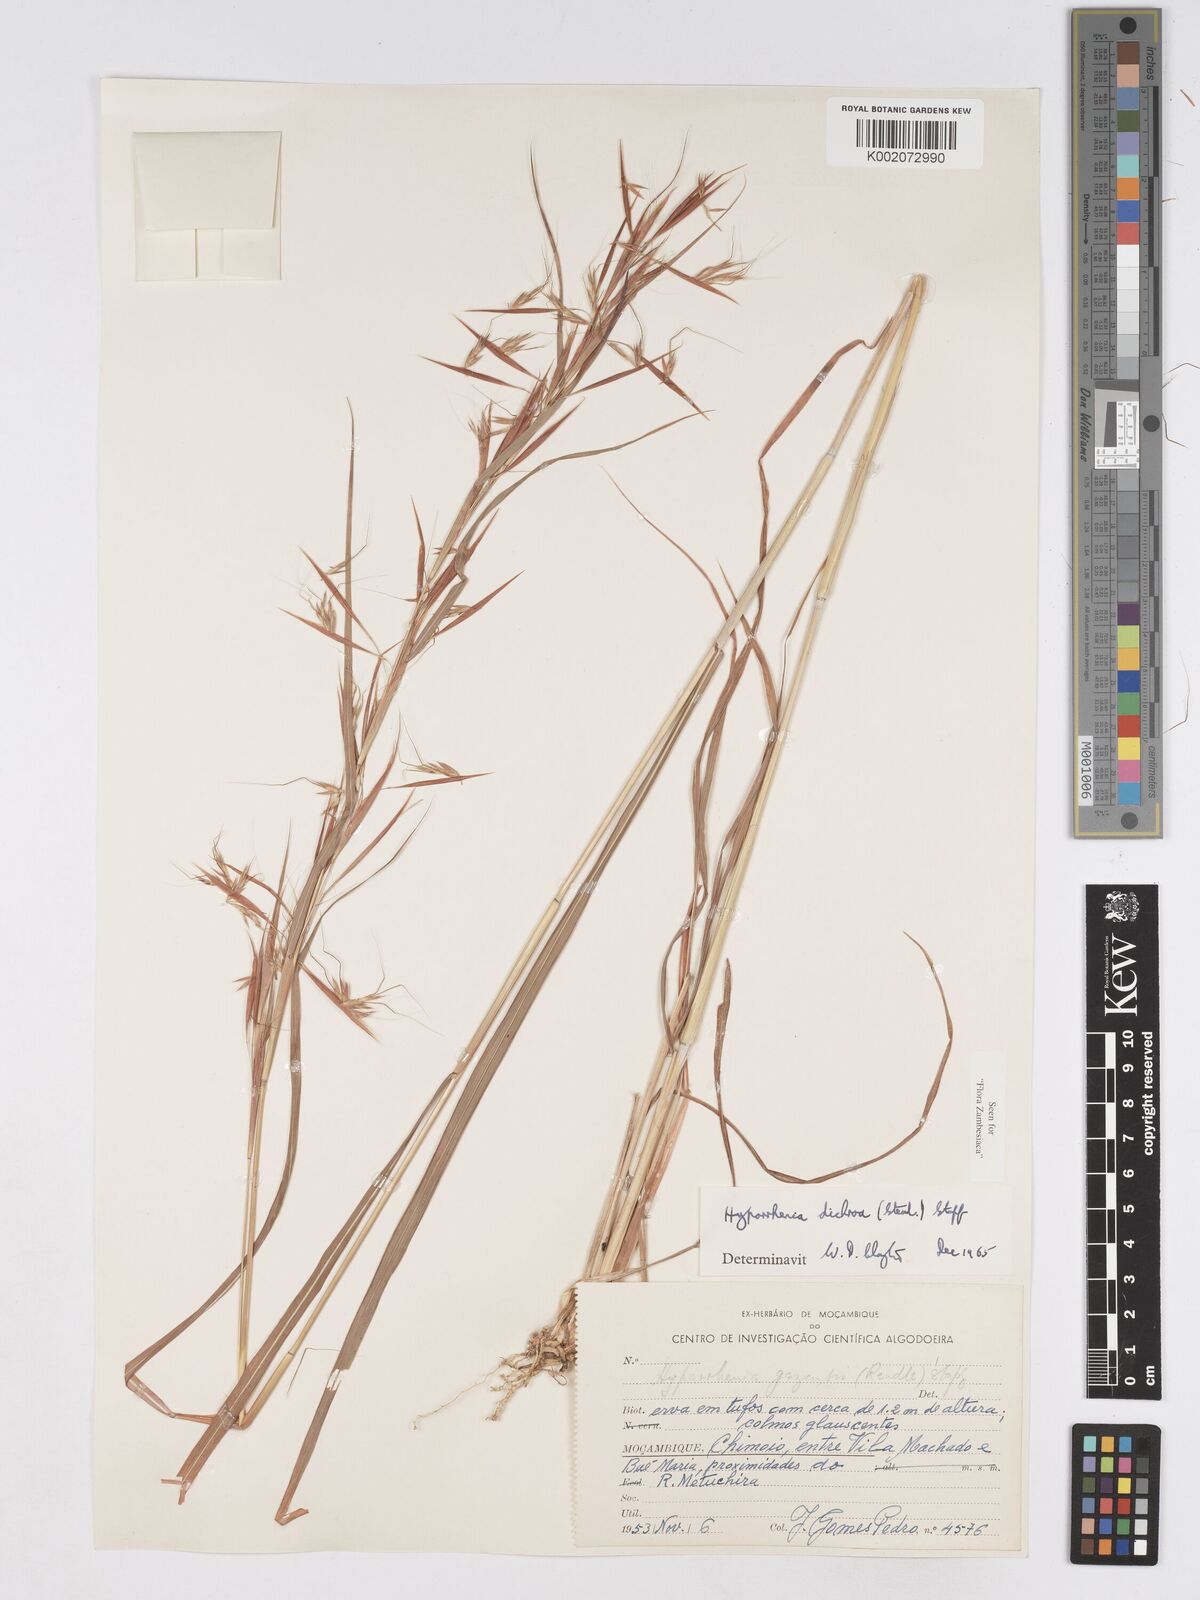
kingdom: Plantae
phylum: Tracheophyta
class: Liliopsida
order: Poales
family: Poaceae
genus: Hyparrhenia
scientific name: Hyparrhenia dichroa
